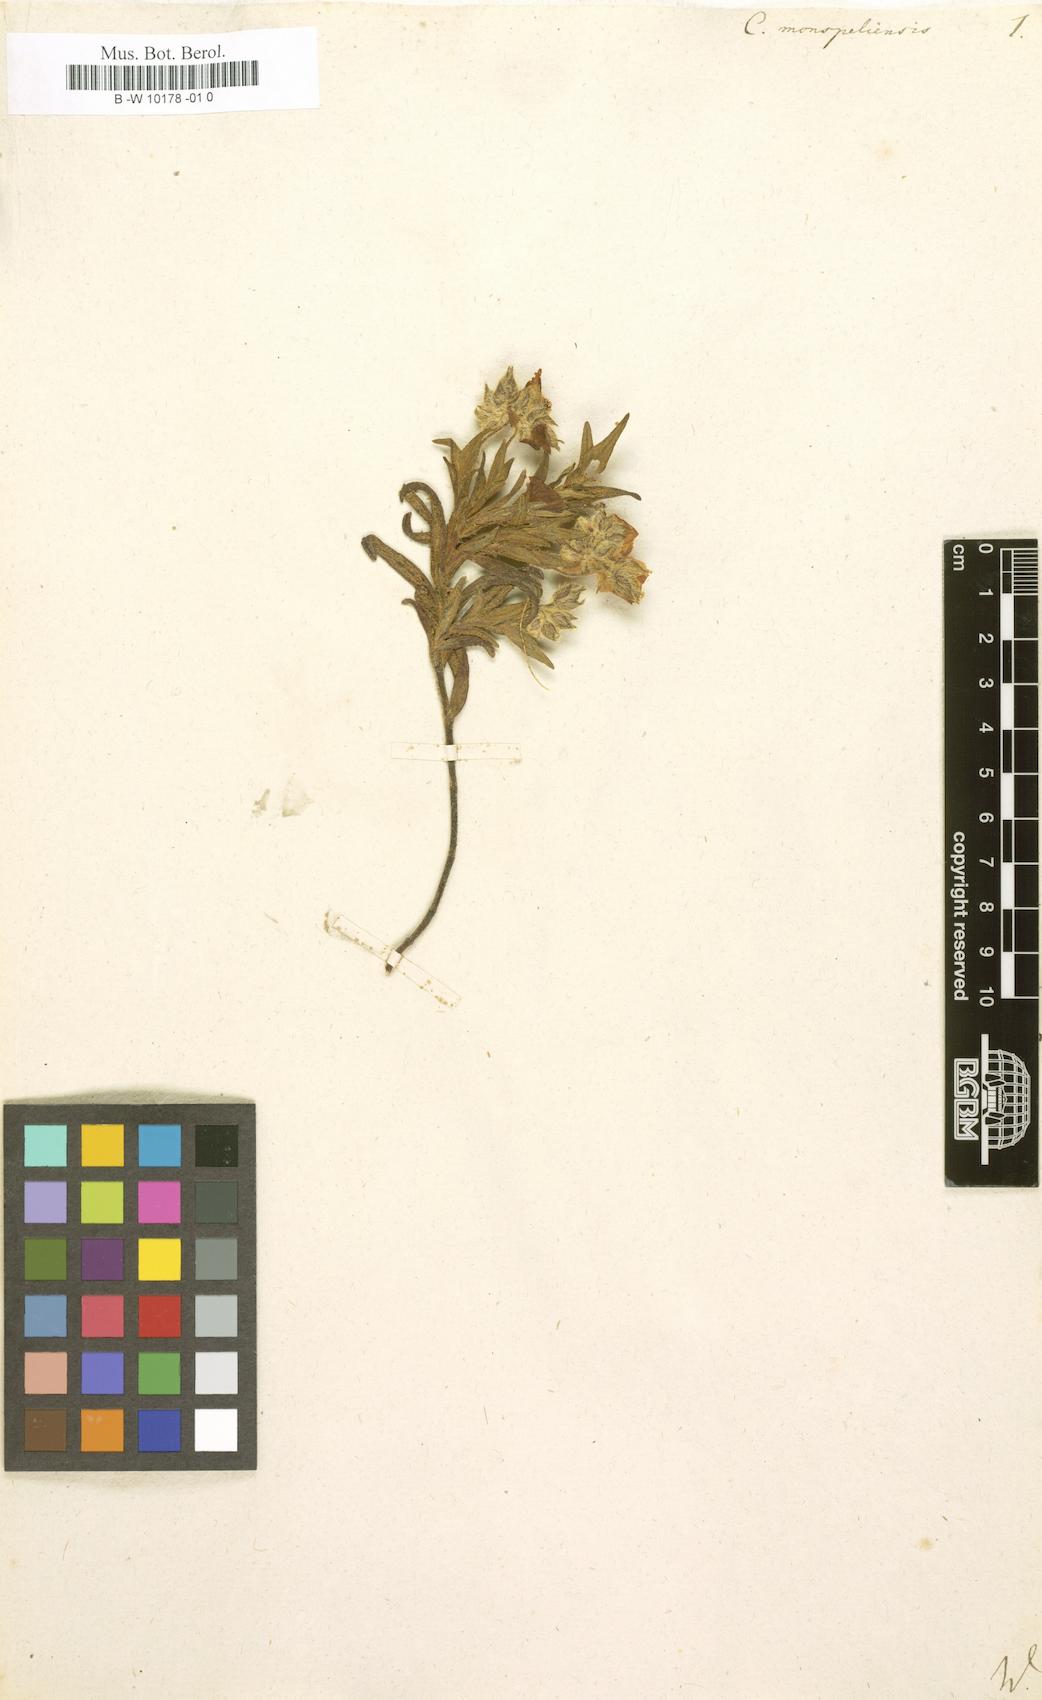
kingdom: Plantae
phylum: Tracheophyta
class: Magnoliopsida
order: Malvales
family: Cistaceae
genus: Cistus
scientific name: Cistus monspeliensis
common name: Montpelier cistus
